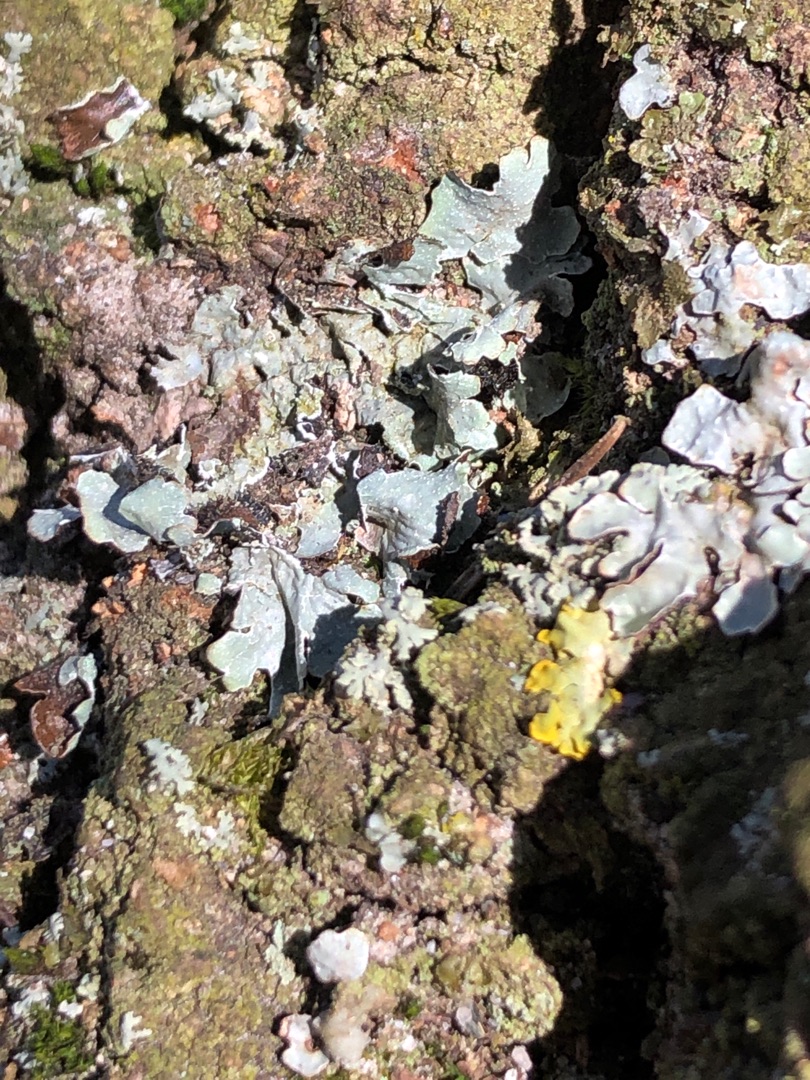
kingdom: Fungi
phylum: Ascomycota
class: Lecanoromycetes
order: Lecanorales
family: Parmeliaceae
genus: Parmelia
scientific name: Parmelia sulcata
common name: Rynket skållav
